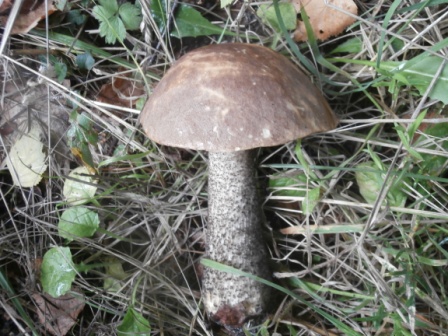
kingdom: Fungi
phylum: Basidiomycota
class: Agaricomycetes
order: Boletales
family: Boletaceae
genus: Leccinum
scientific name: Leccinum scabrum
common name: brun skælrørhat
